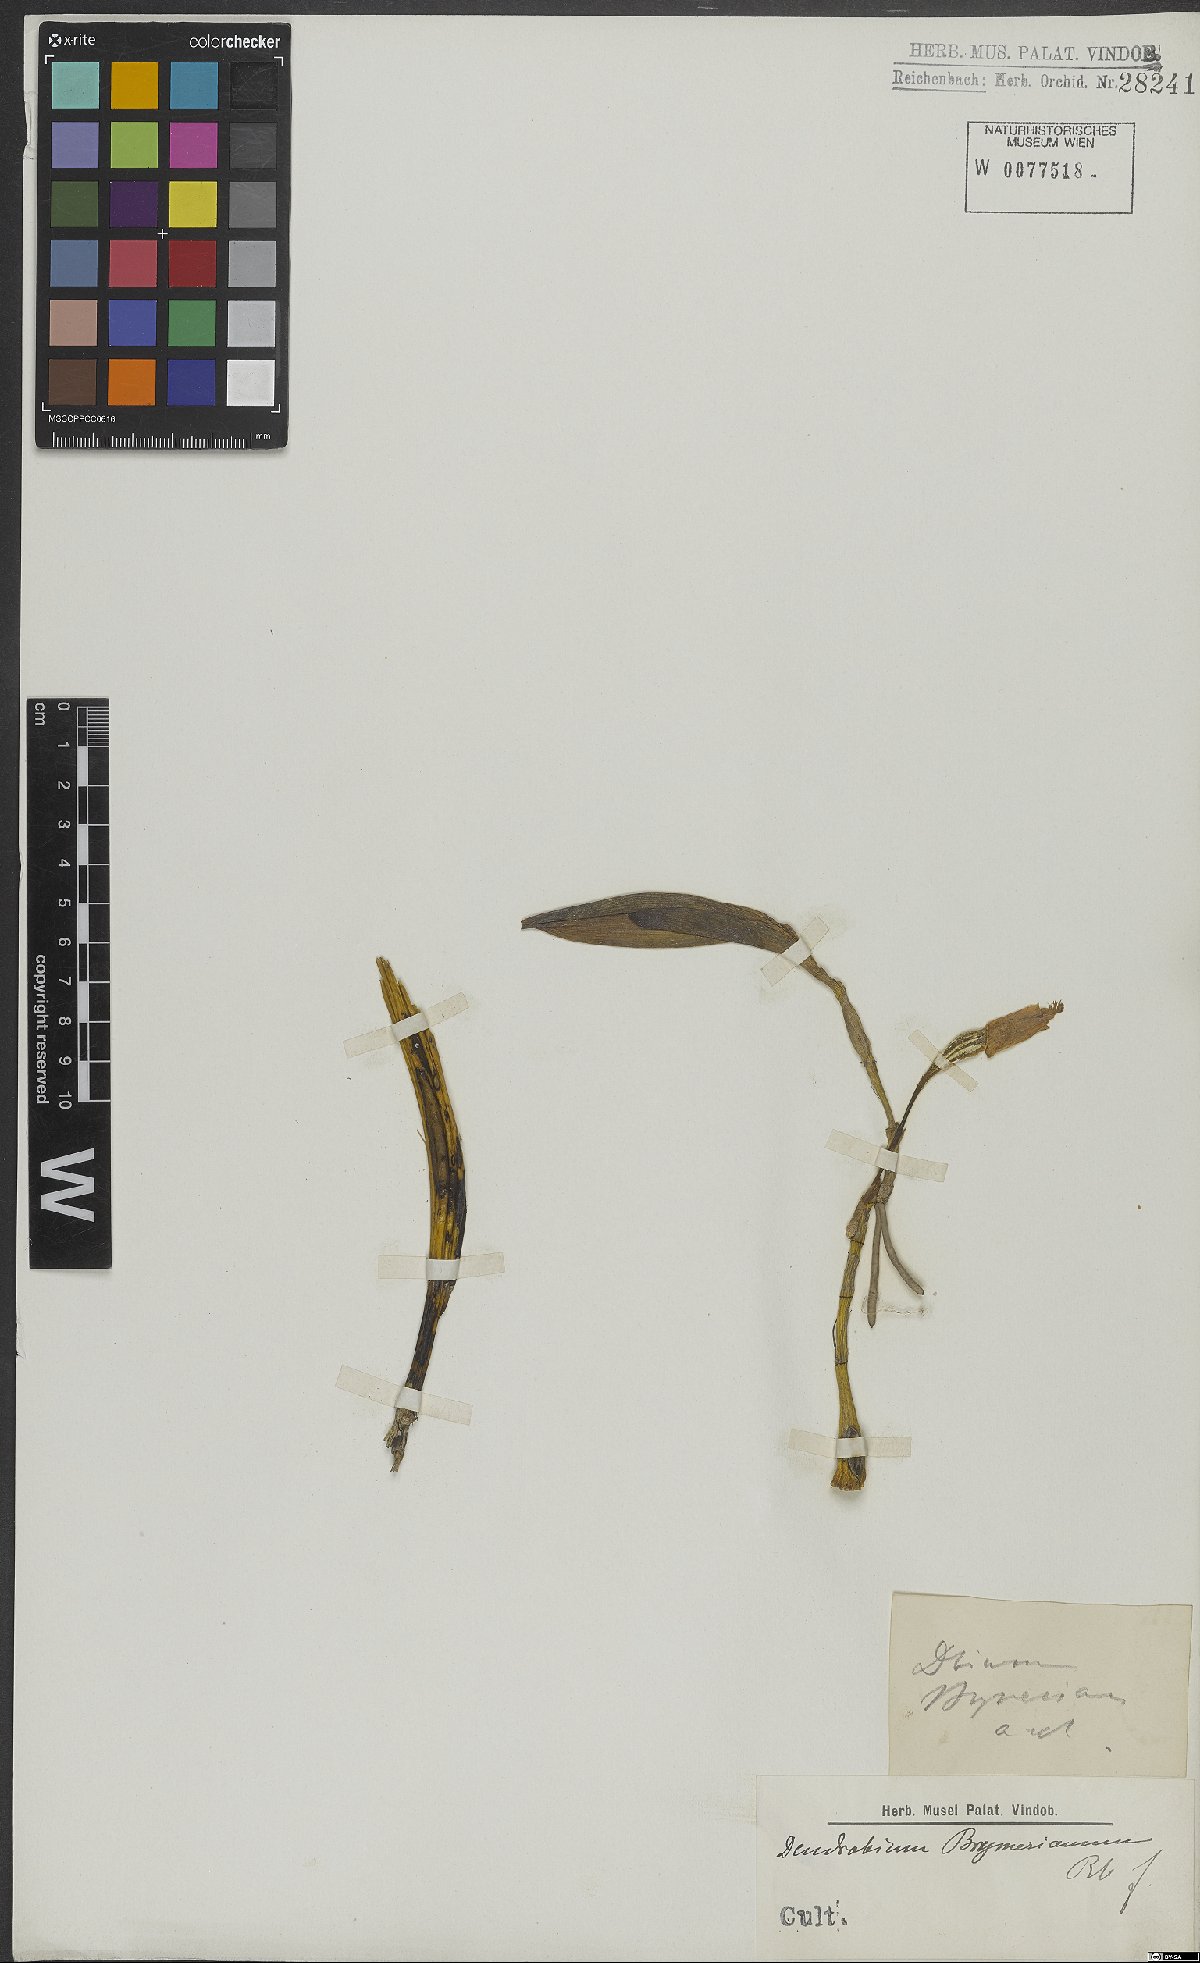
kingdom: Plantae
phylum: Tracheophyta
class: Liliopsida
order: Asparagales
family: Orchidaceae
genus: Dendrobium
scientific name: Dendrobium brymerianum
